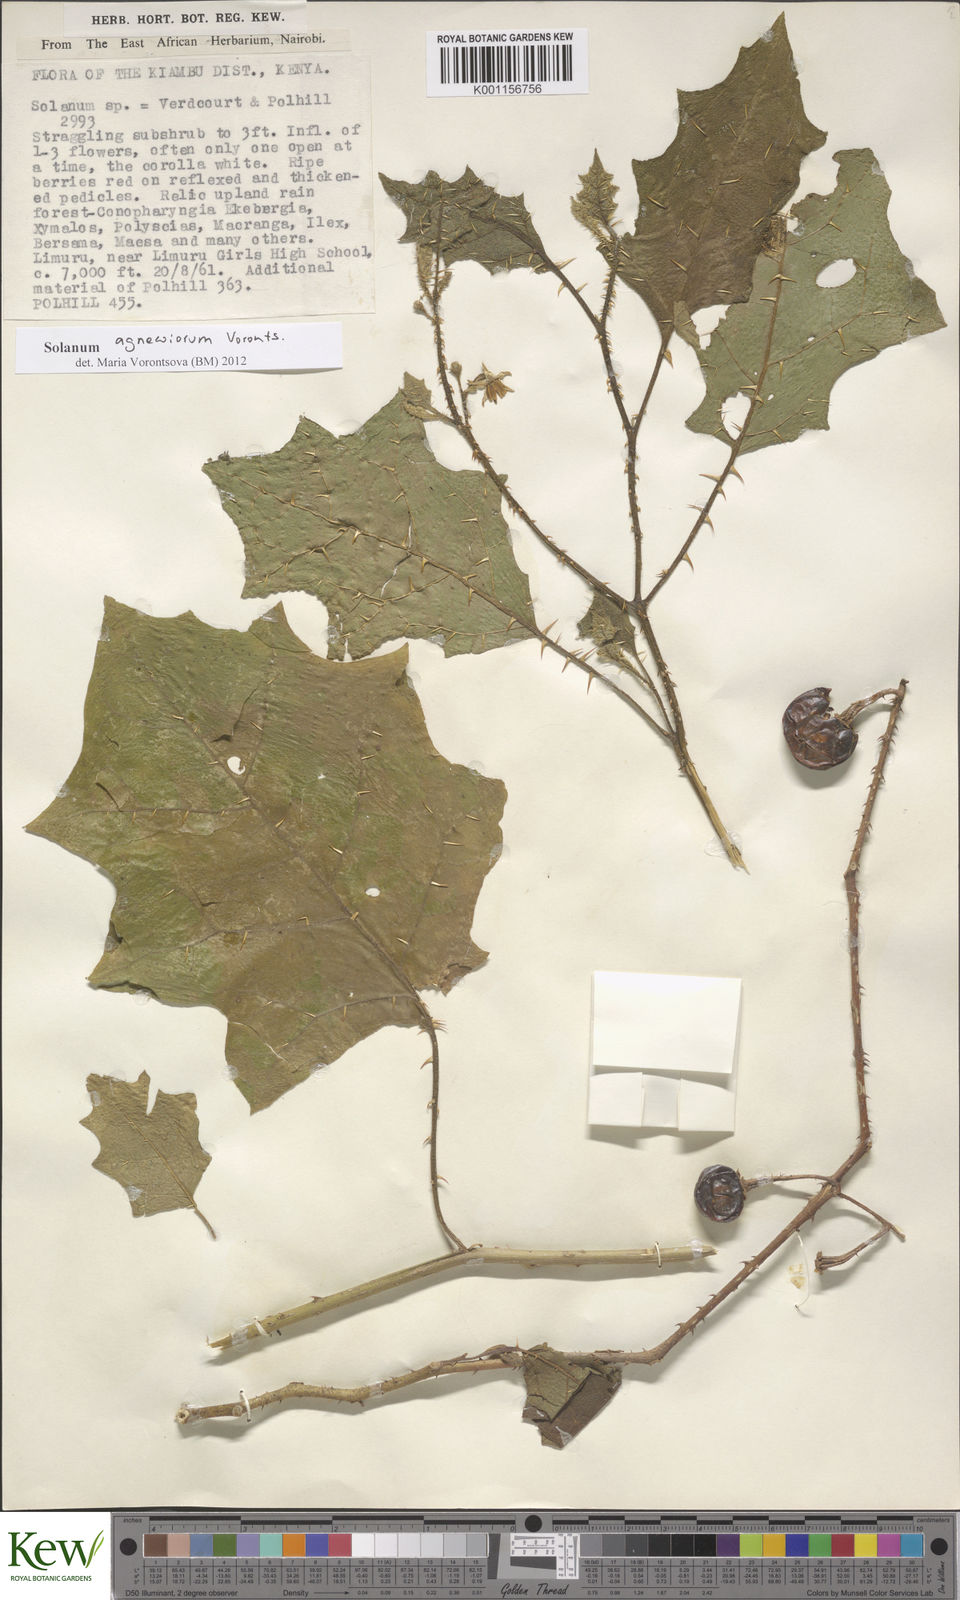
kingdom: Plantae
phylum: Tracheophyta
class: Magnoliopsida
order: Solanales
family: Solanaceae
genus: Solanum
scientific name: Solanum agnewiorum
